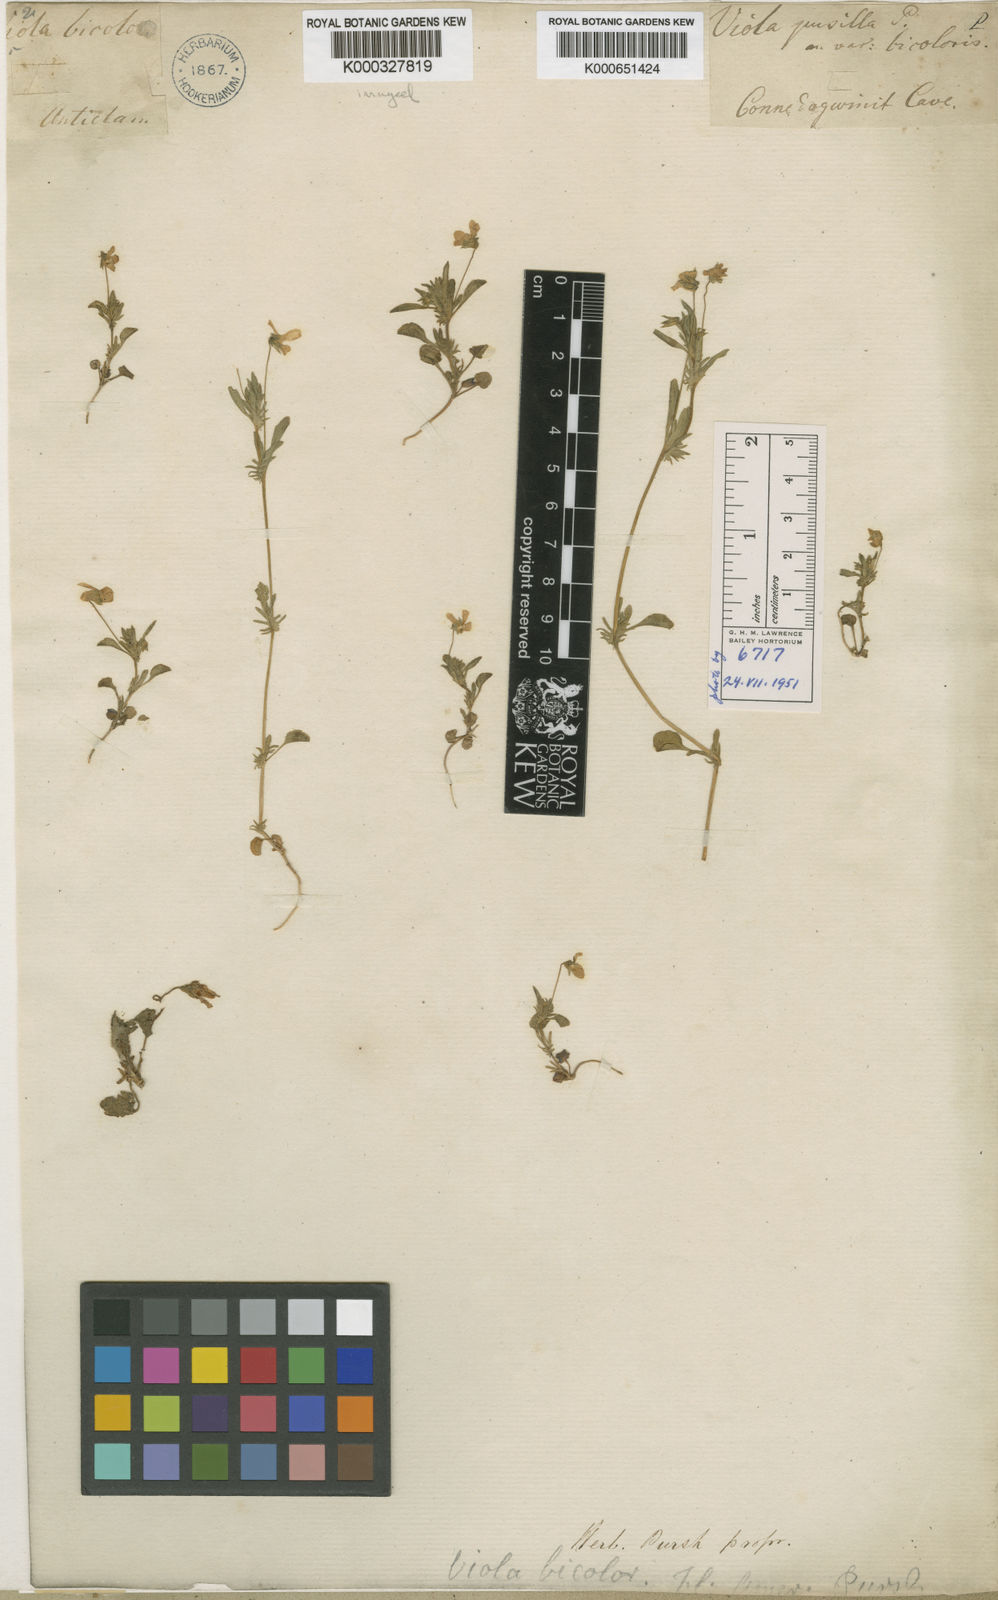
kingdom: Plantae
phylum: Tracheophyta
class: Magnoliopsida
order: Malpighiales
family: Violaceae
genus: Viola
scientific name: Viola rafinesquei
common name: American field pansy
